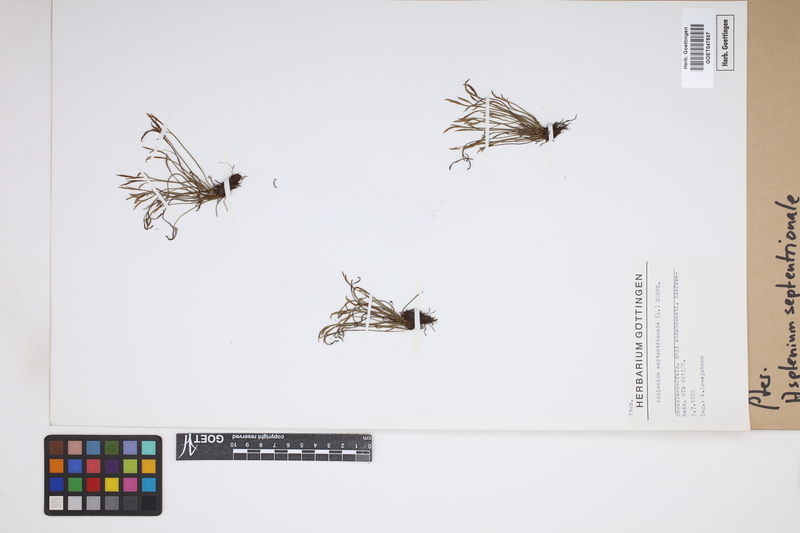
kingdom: Plantae
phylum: Tracheophyta
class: Polypodiopsida
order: Polypodiales
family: Aspleniaceae
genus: Asplenium
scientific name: Asplenium septentrionale
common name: Forked spleenwort
